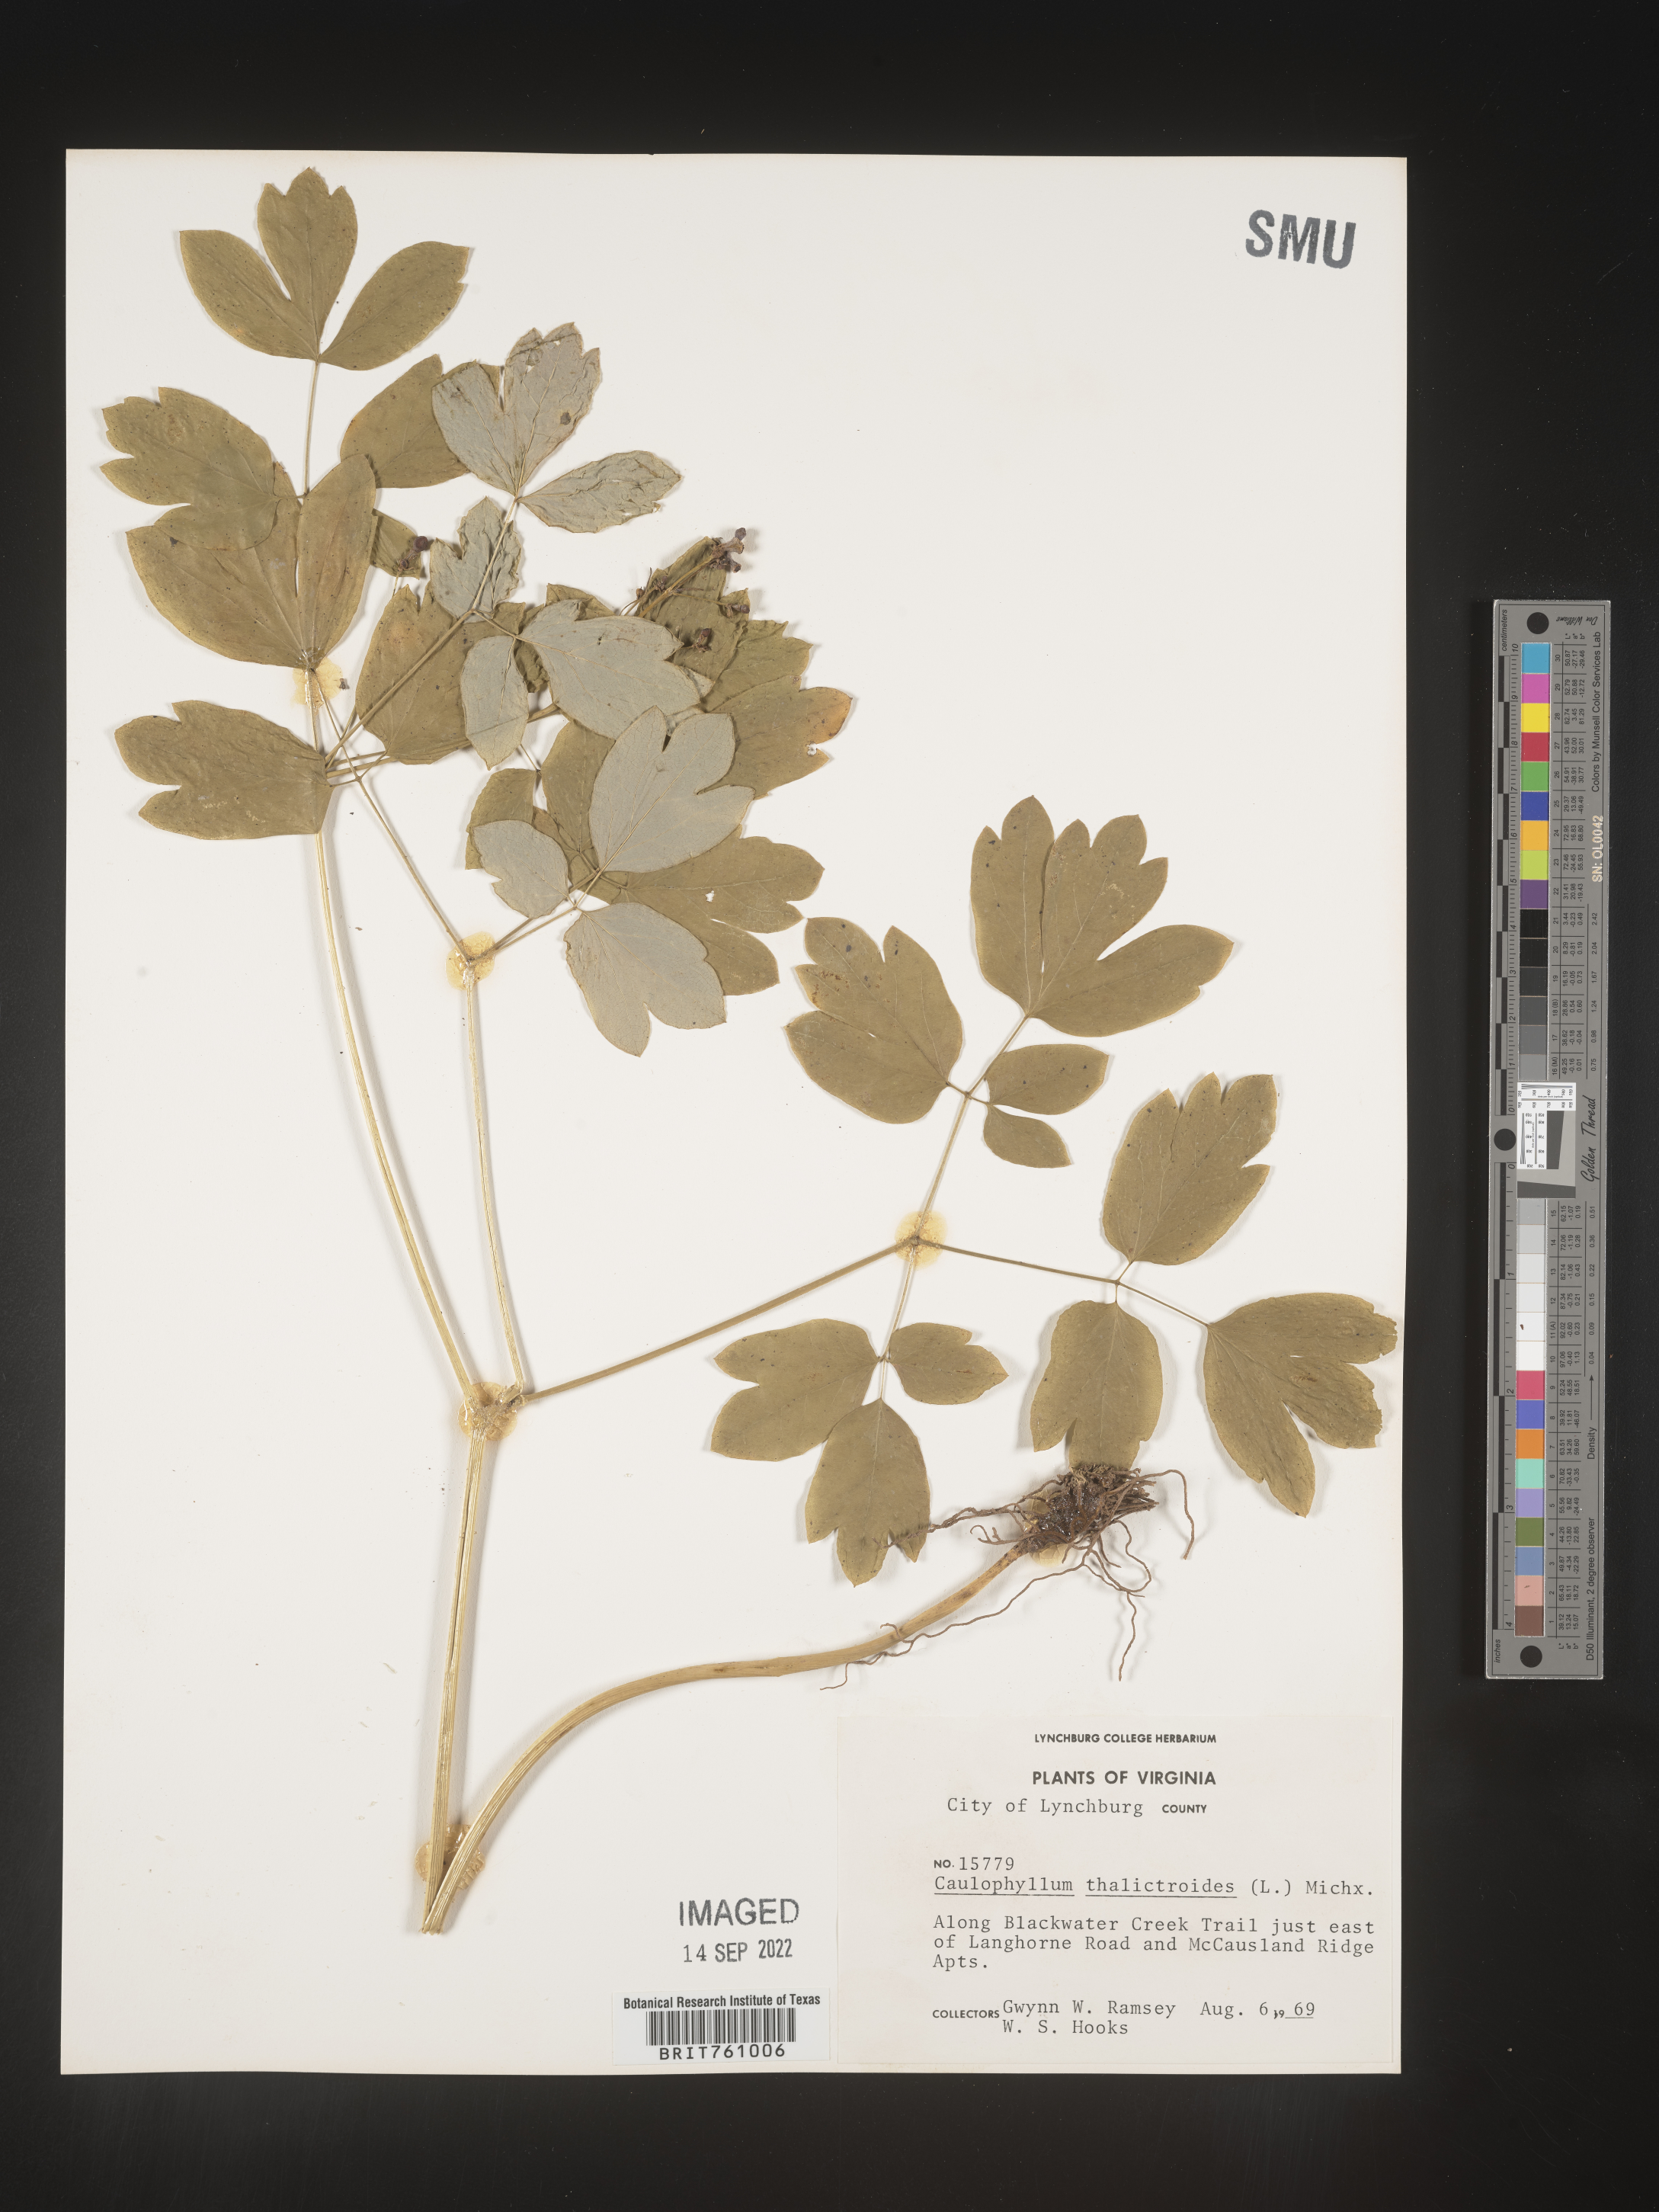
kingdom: Plantae
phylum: Tracheophyta
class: Magnoliopsida
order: Ranunculales
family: Berberidaceae
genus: Caulophyllum
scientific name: Caulophyllum thalictroides
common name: Blue cohosh
